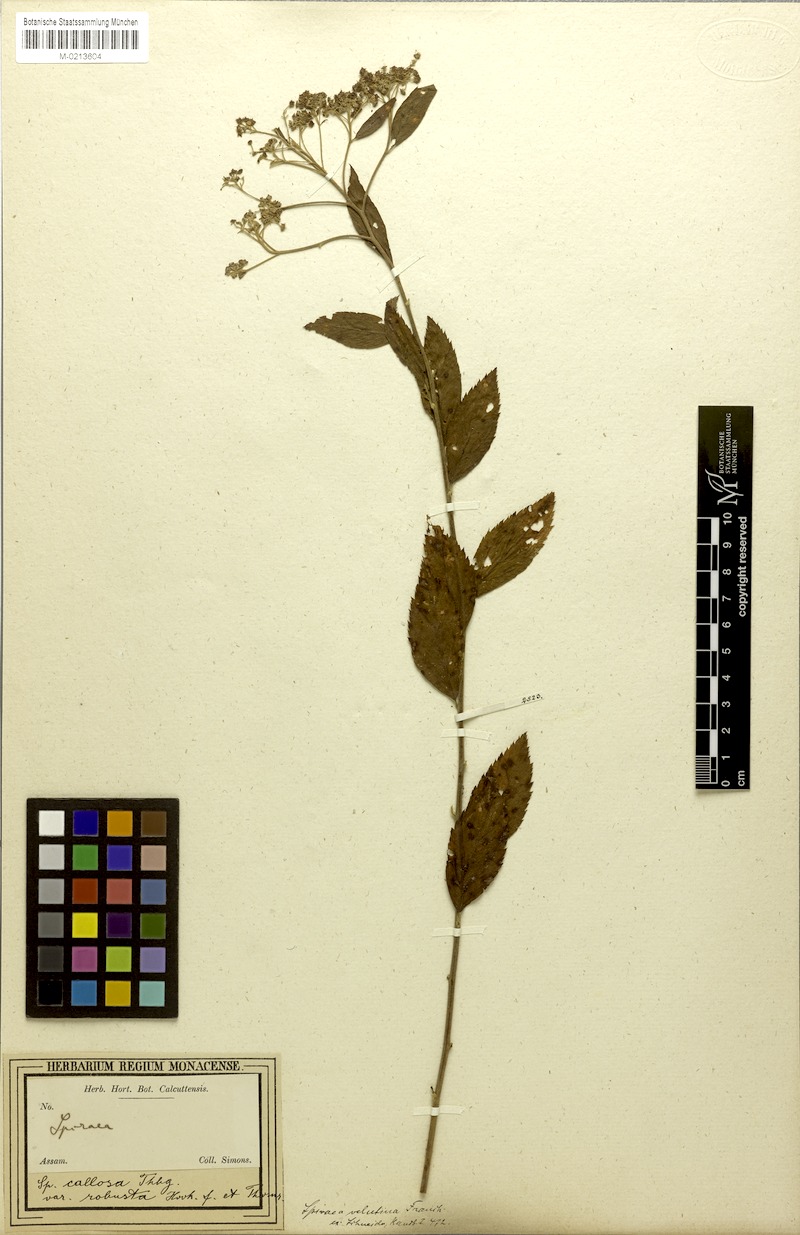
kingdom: Plantae
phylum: Tracheophyta
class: Magnoliopsida
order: Rosales
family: Rosaceae
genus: Spiraea
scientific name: Spiraea velutina
